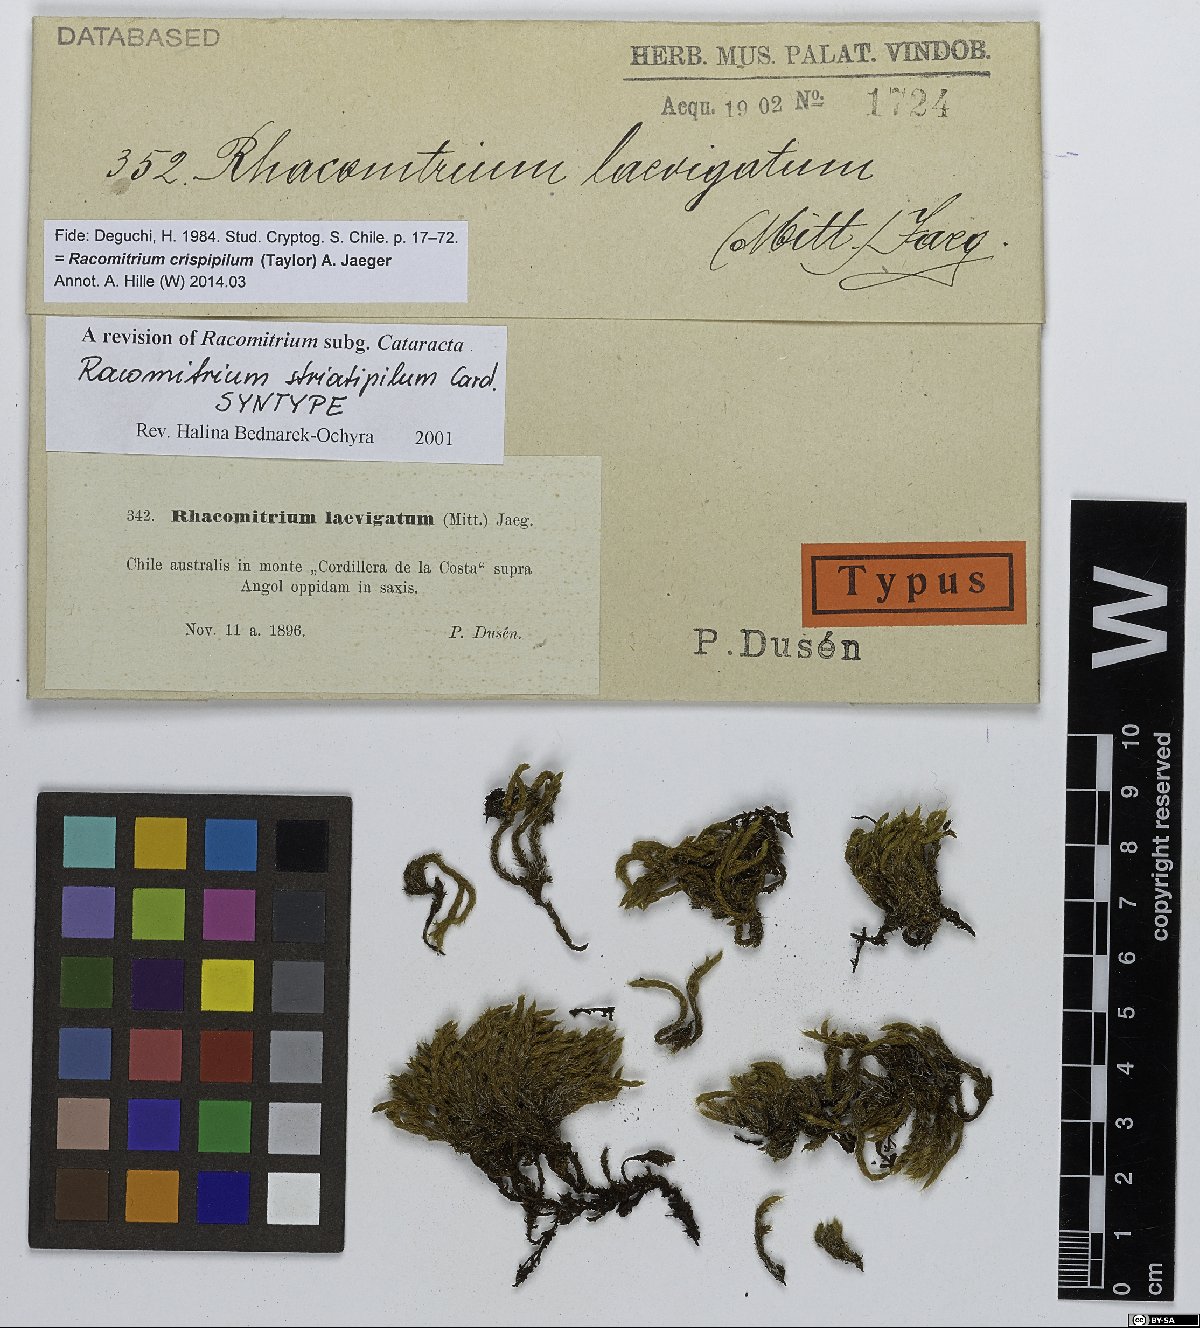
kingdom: Plantae
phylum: Bryophyta
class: Bryopsida
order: Grimmiales
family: Grimmiaceae
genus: Bucklandiella
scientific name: Bucklandiella striatipila
